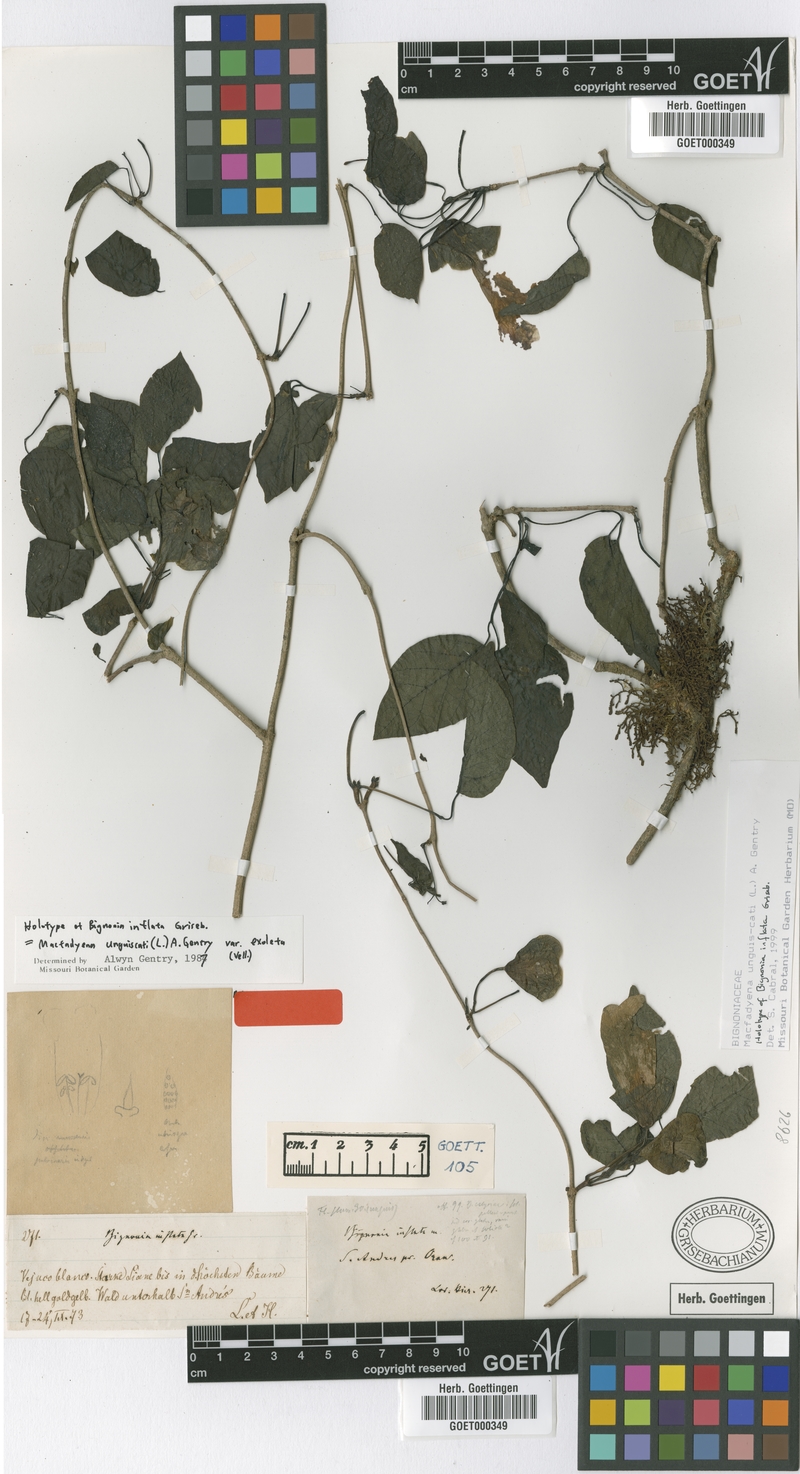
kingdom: Plantae
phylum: Tracheophyta
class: Magnoliopsida
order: Lamiales
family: Bignoniaceae
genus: Dolichandra
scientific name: Dolichandra unguis-cati
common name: Catclaw vine
